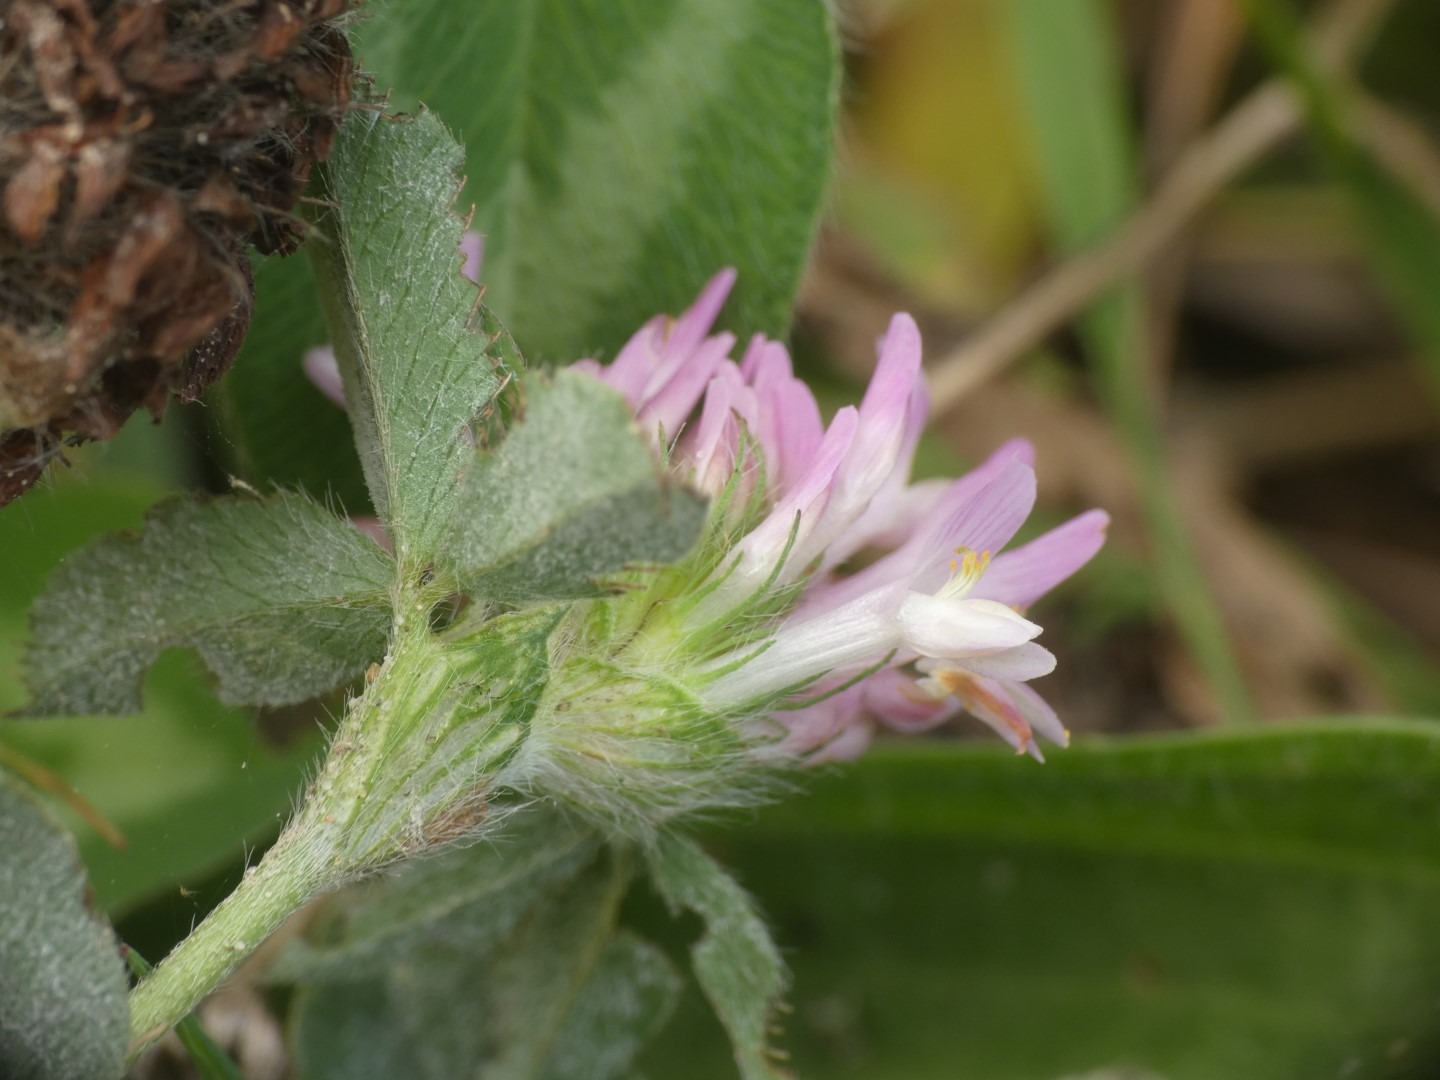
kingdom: Plantae
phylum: Tracheophyta
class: Magnoliopsida
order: Fabales
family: Fabaceae
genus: Trifolium
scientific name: Trifolium pratense
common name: Rød-kløver
